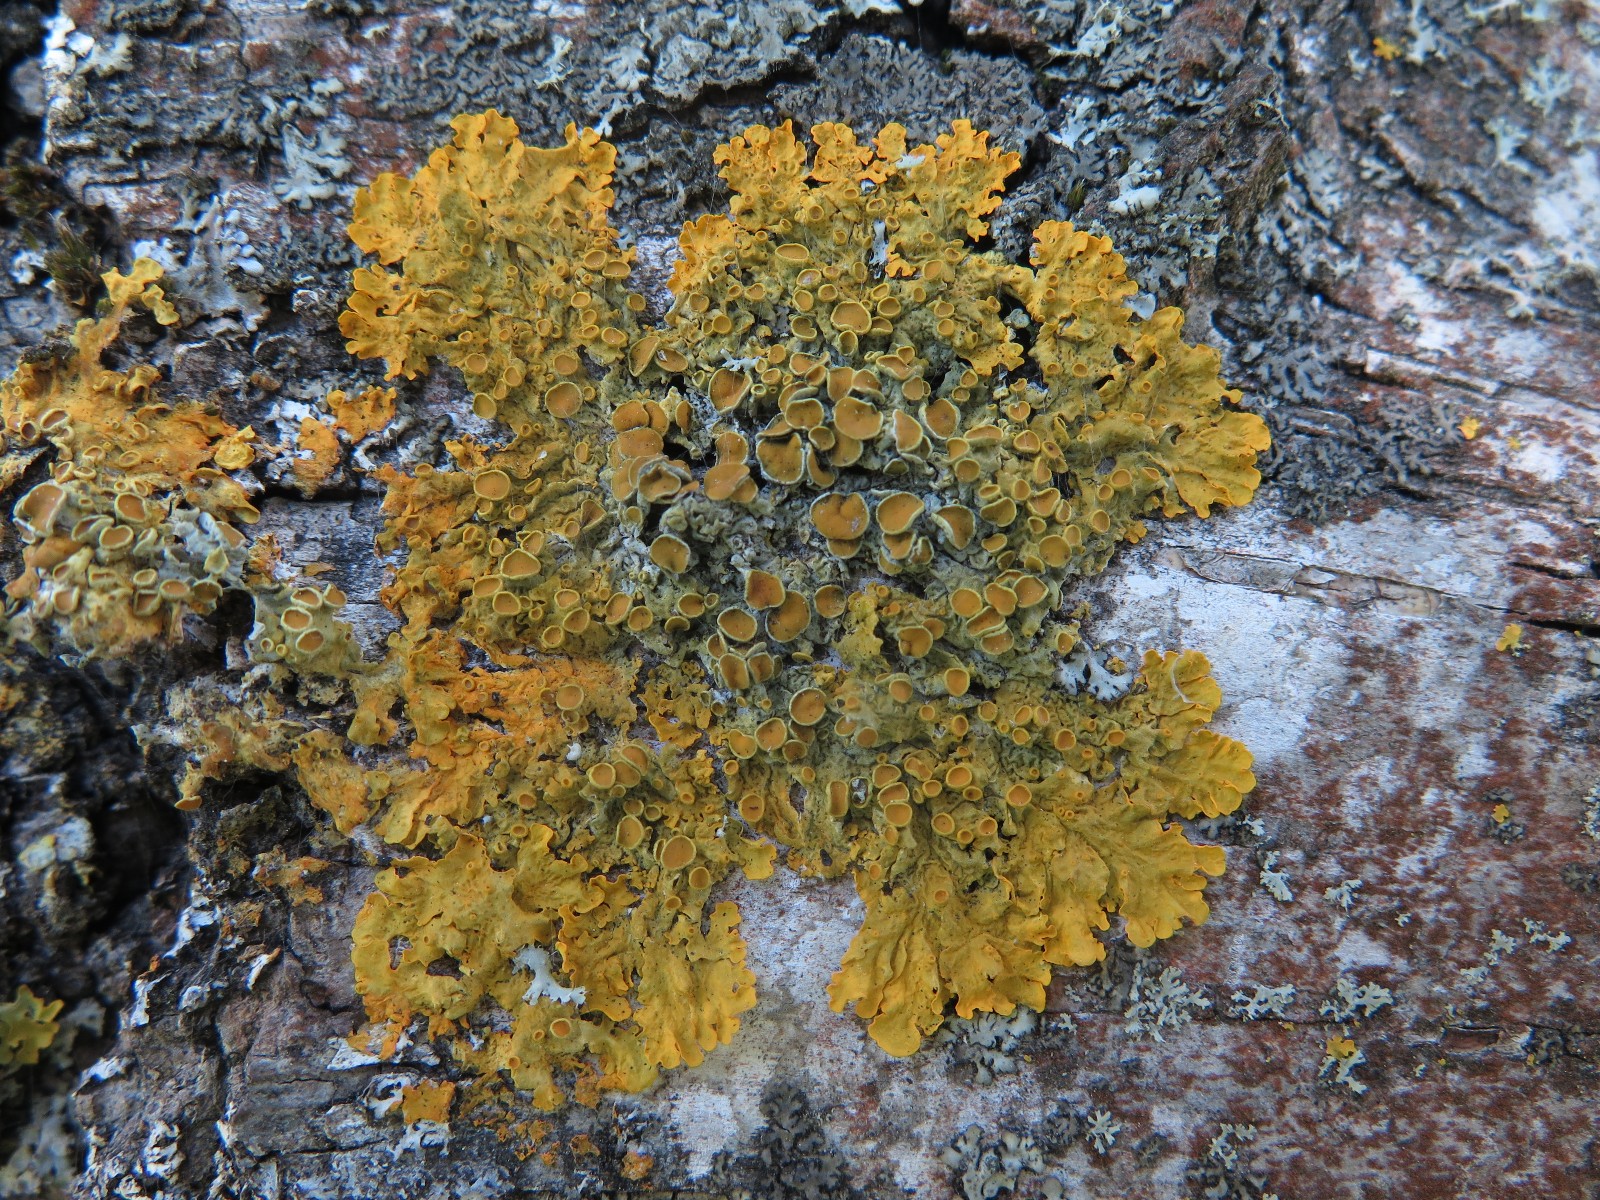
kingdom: Fungi
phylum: Ascomycota
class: Lecanoromycetes
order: Teloschistales
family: Teloschistaceae
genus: Xanthoria
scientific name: Xanthoria parietina
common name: almindelig væggelav
